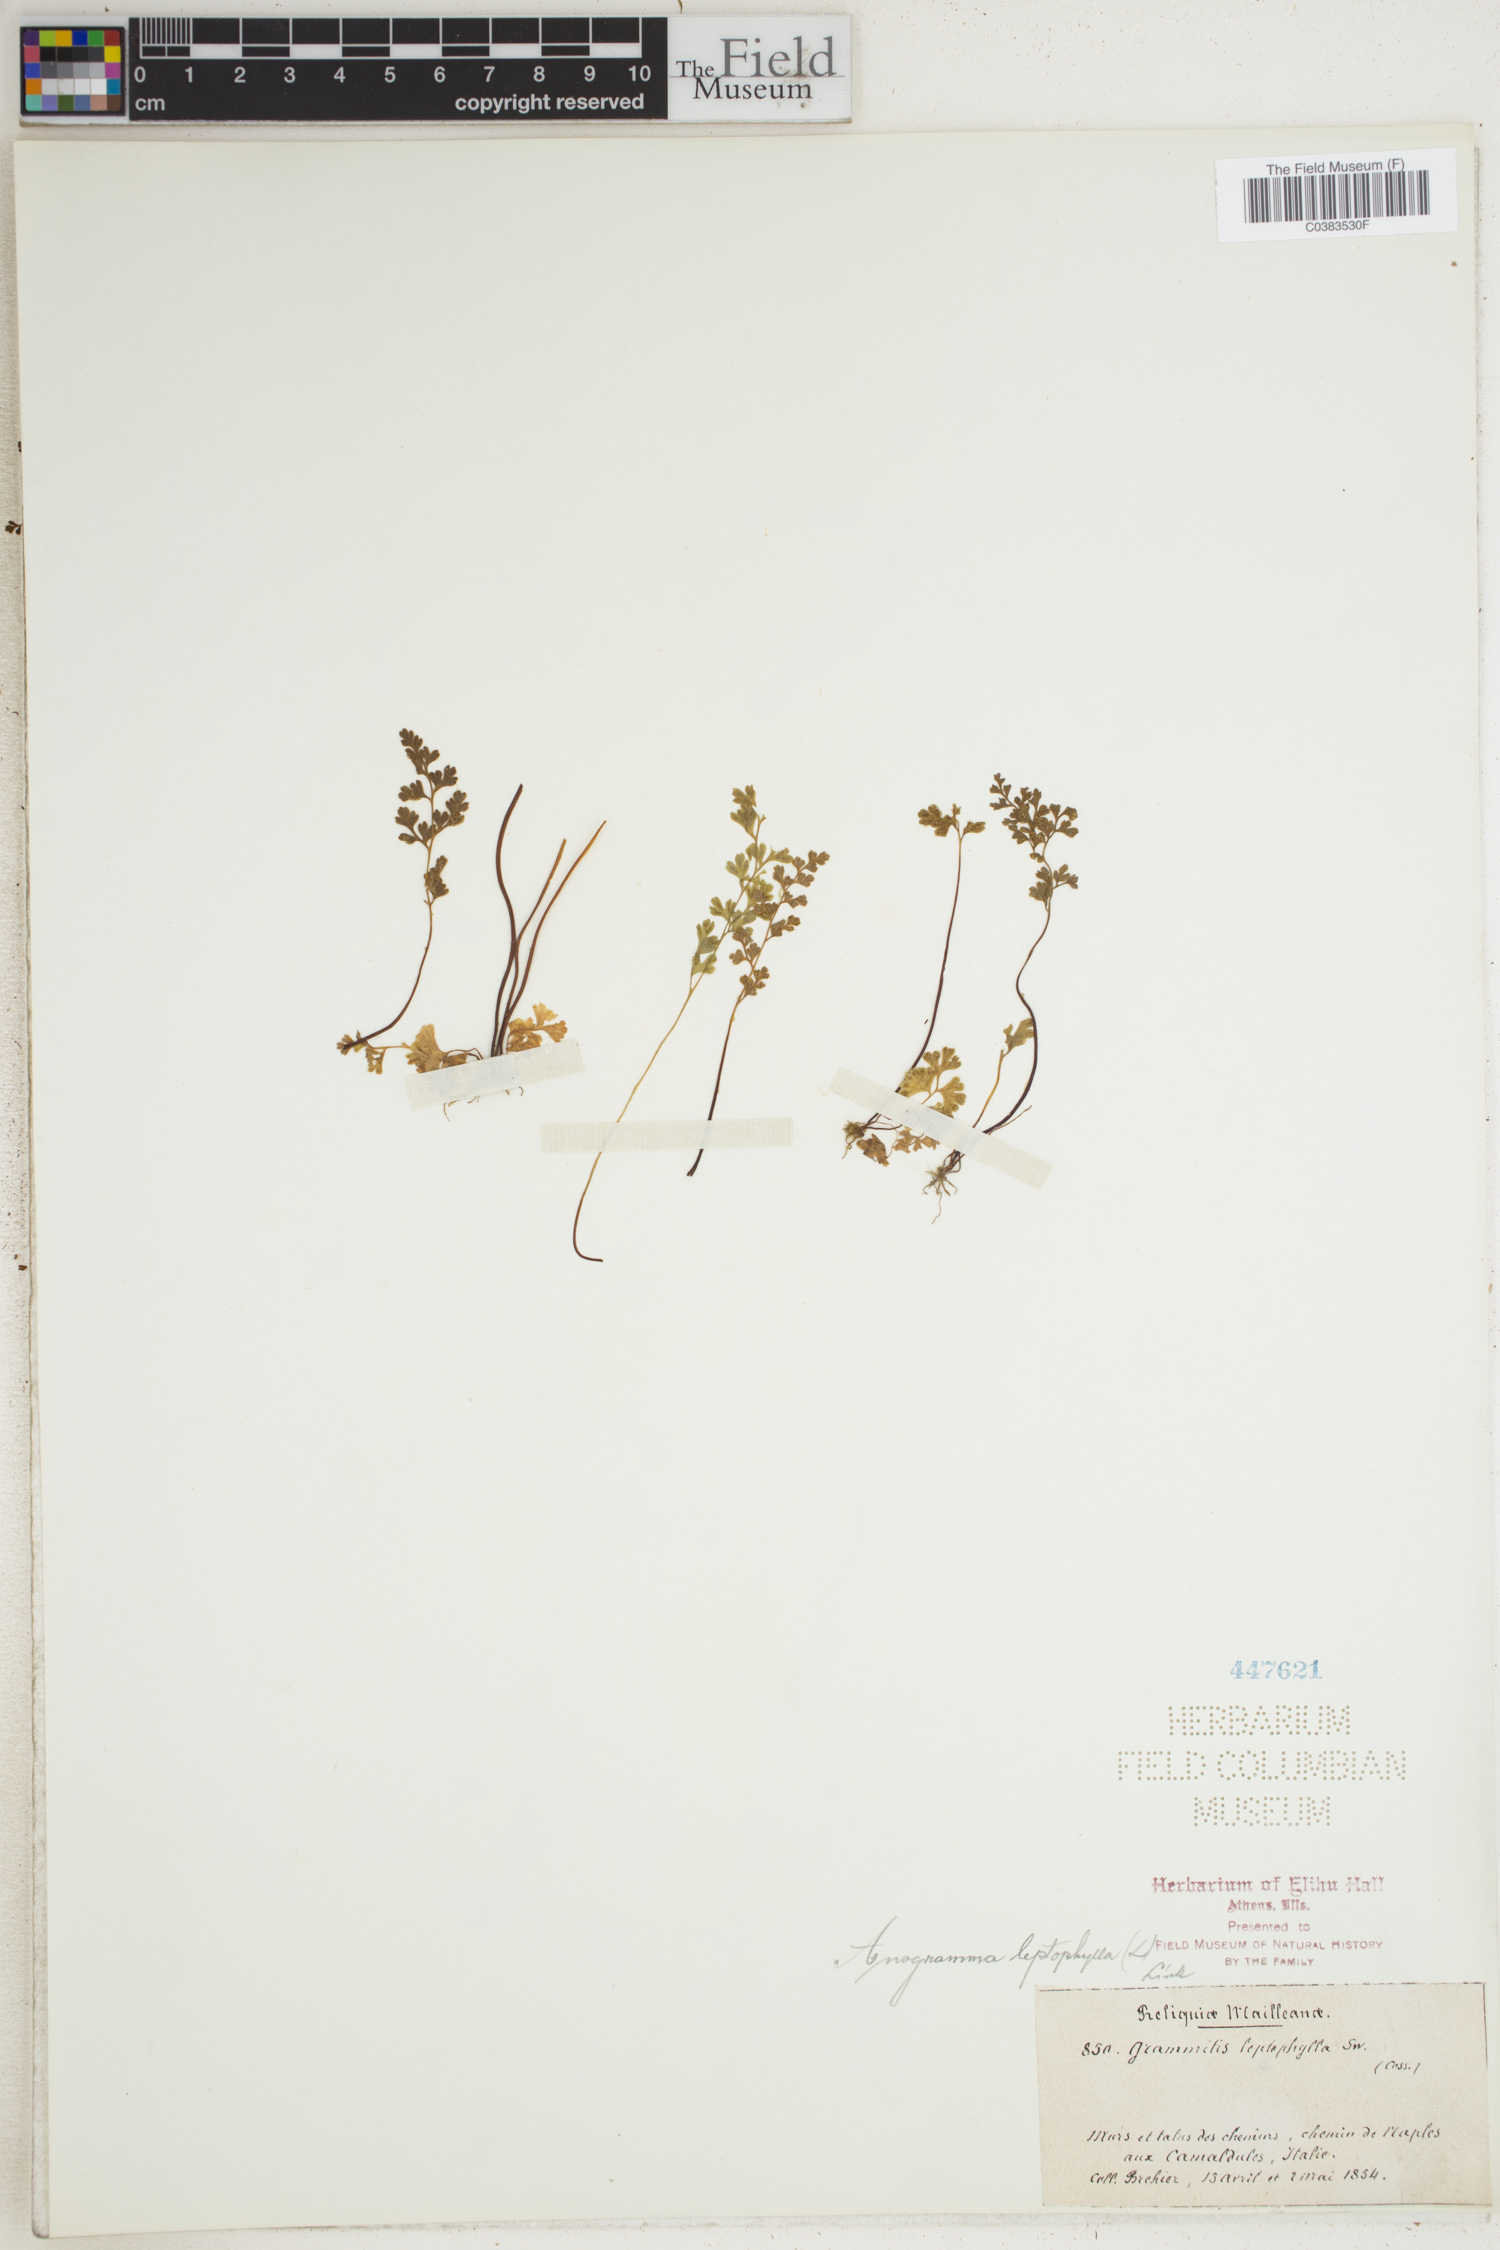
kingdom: Plantae
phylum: Tracheophyta
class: Polypodiopsida
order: Polypodiales
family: Pteridaceae
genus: Anogramma
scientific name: Anogramma leptophylla
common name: Jersey fern
